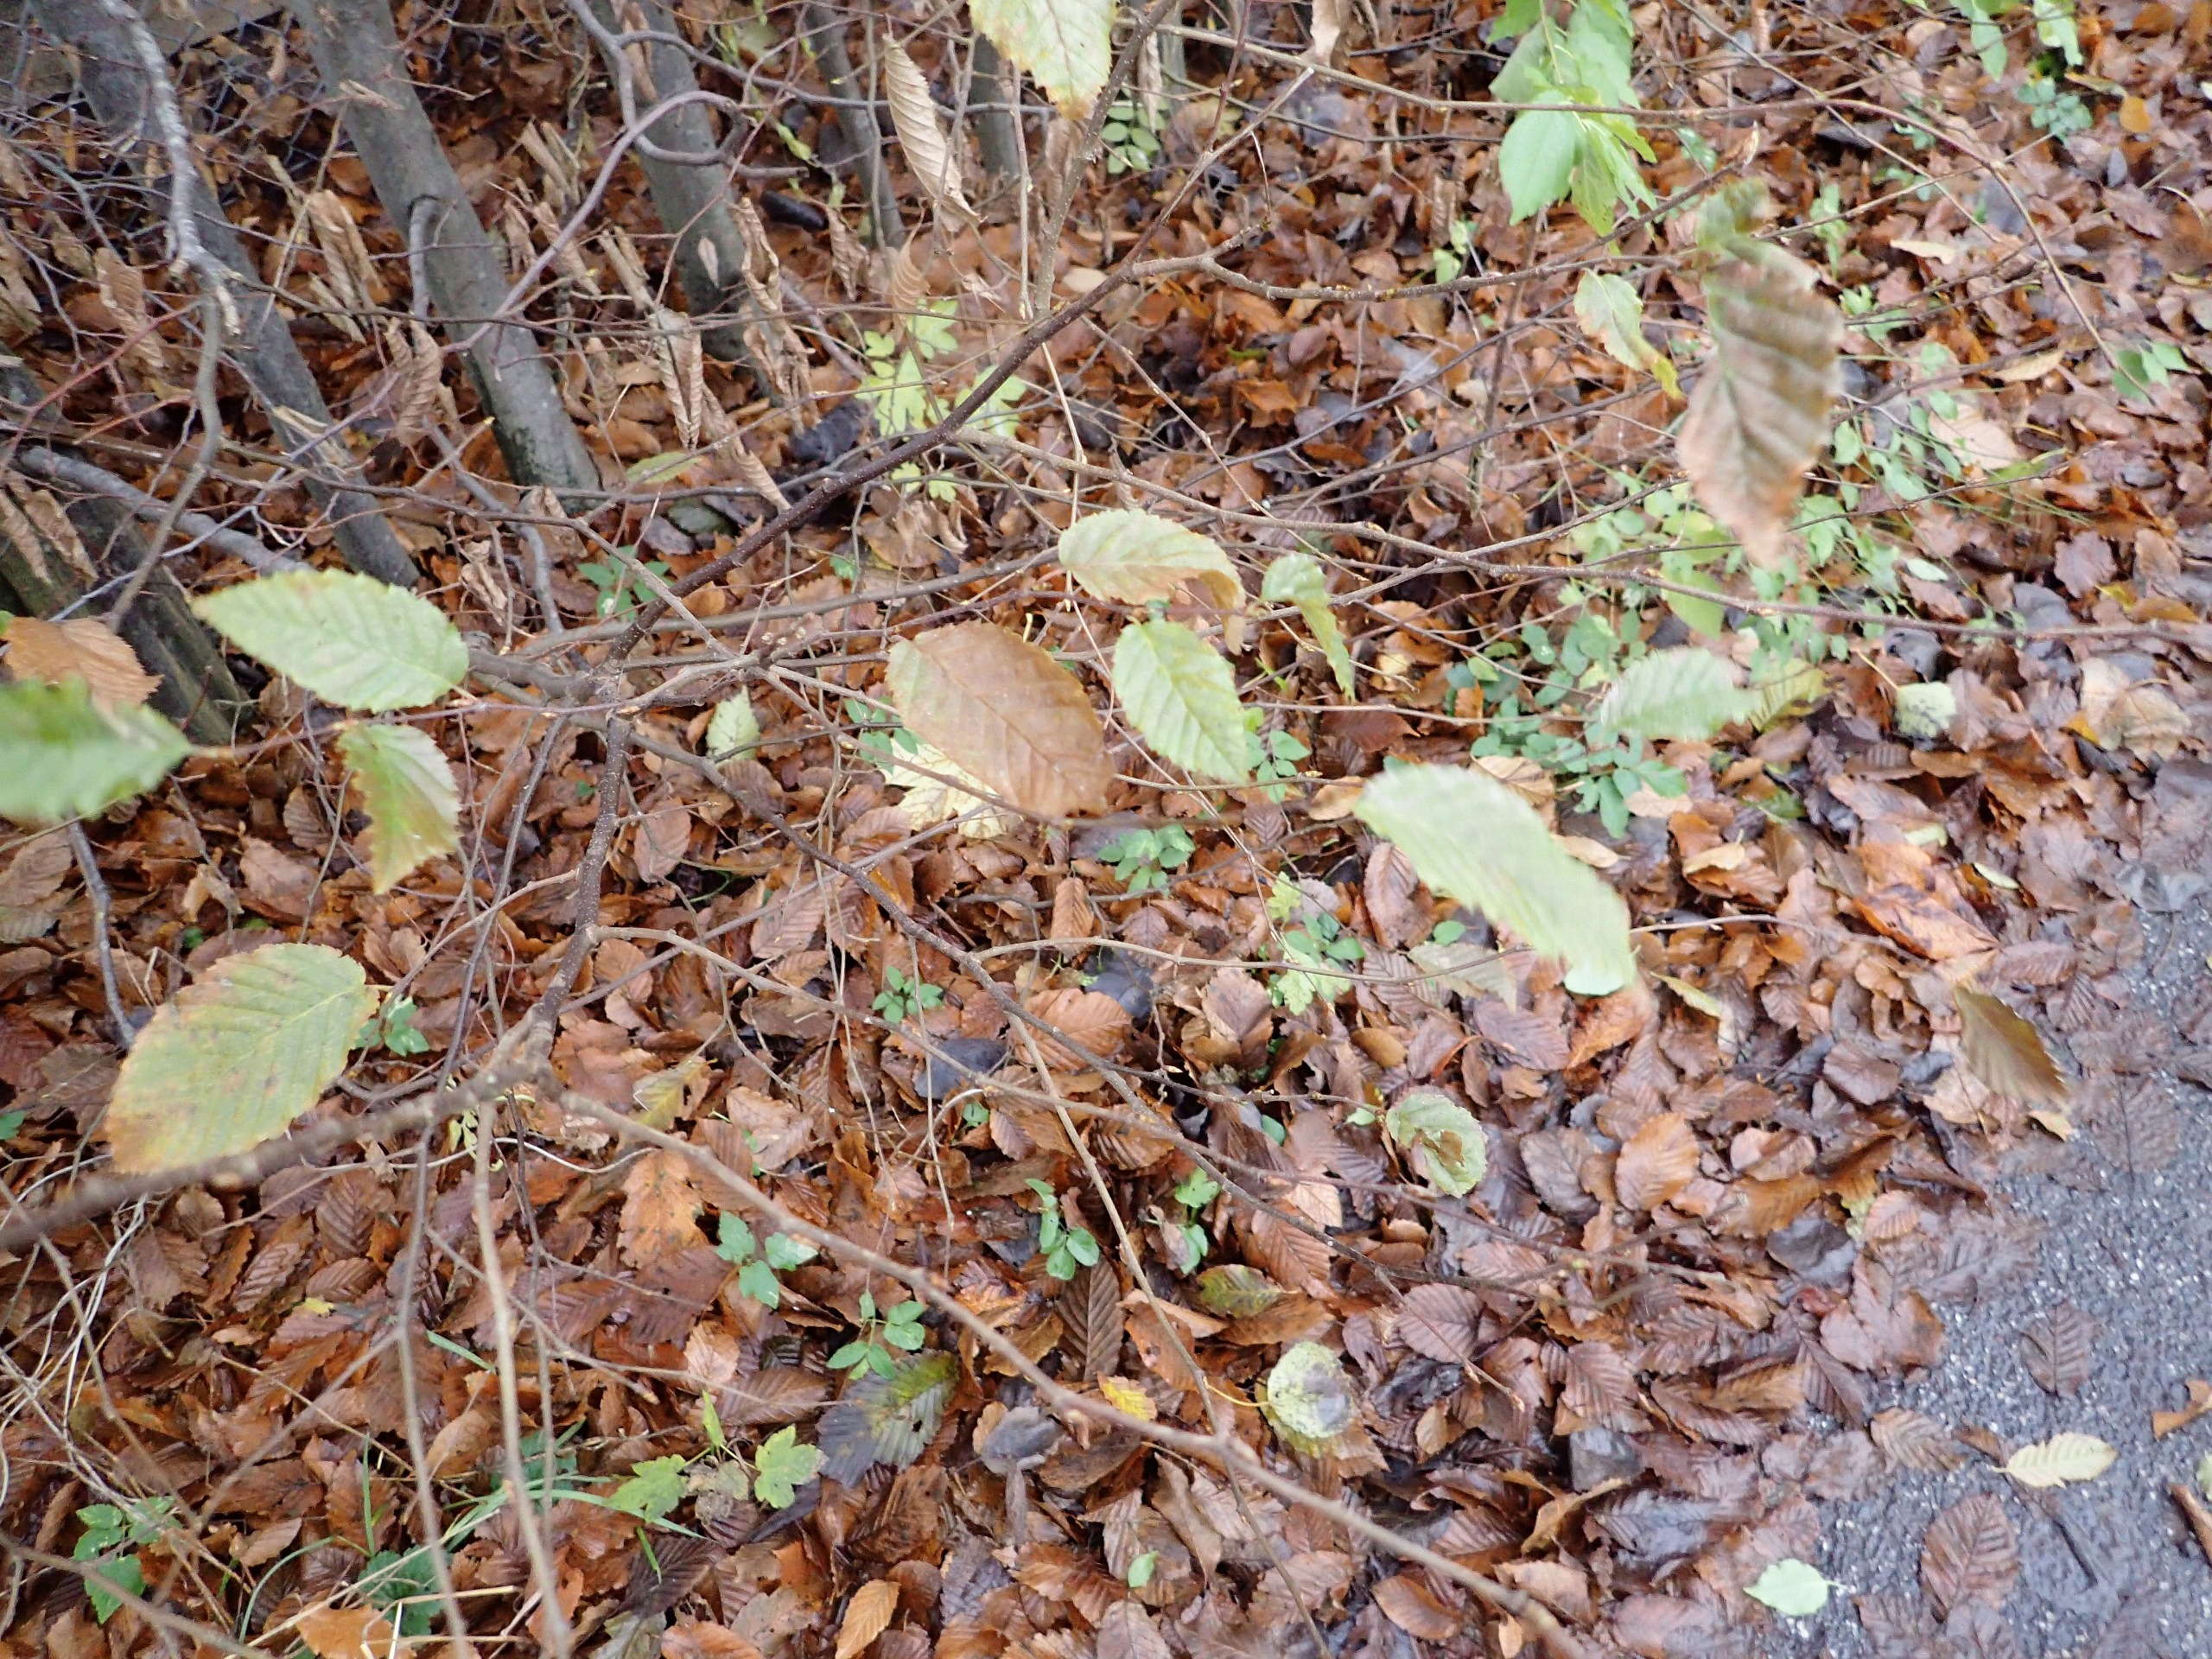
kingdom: Plantae
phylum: Tracheophyta
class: Magnoliopsida
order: Fagales
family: Betulaceae
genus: Carpinus
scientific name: Carpinus betulus
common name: Avnbøg
